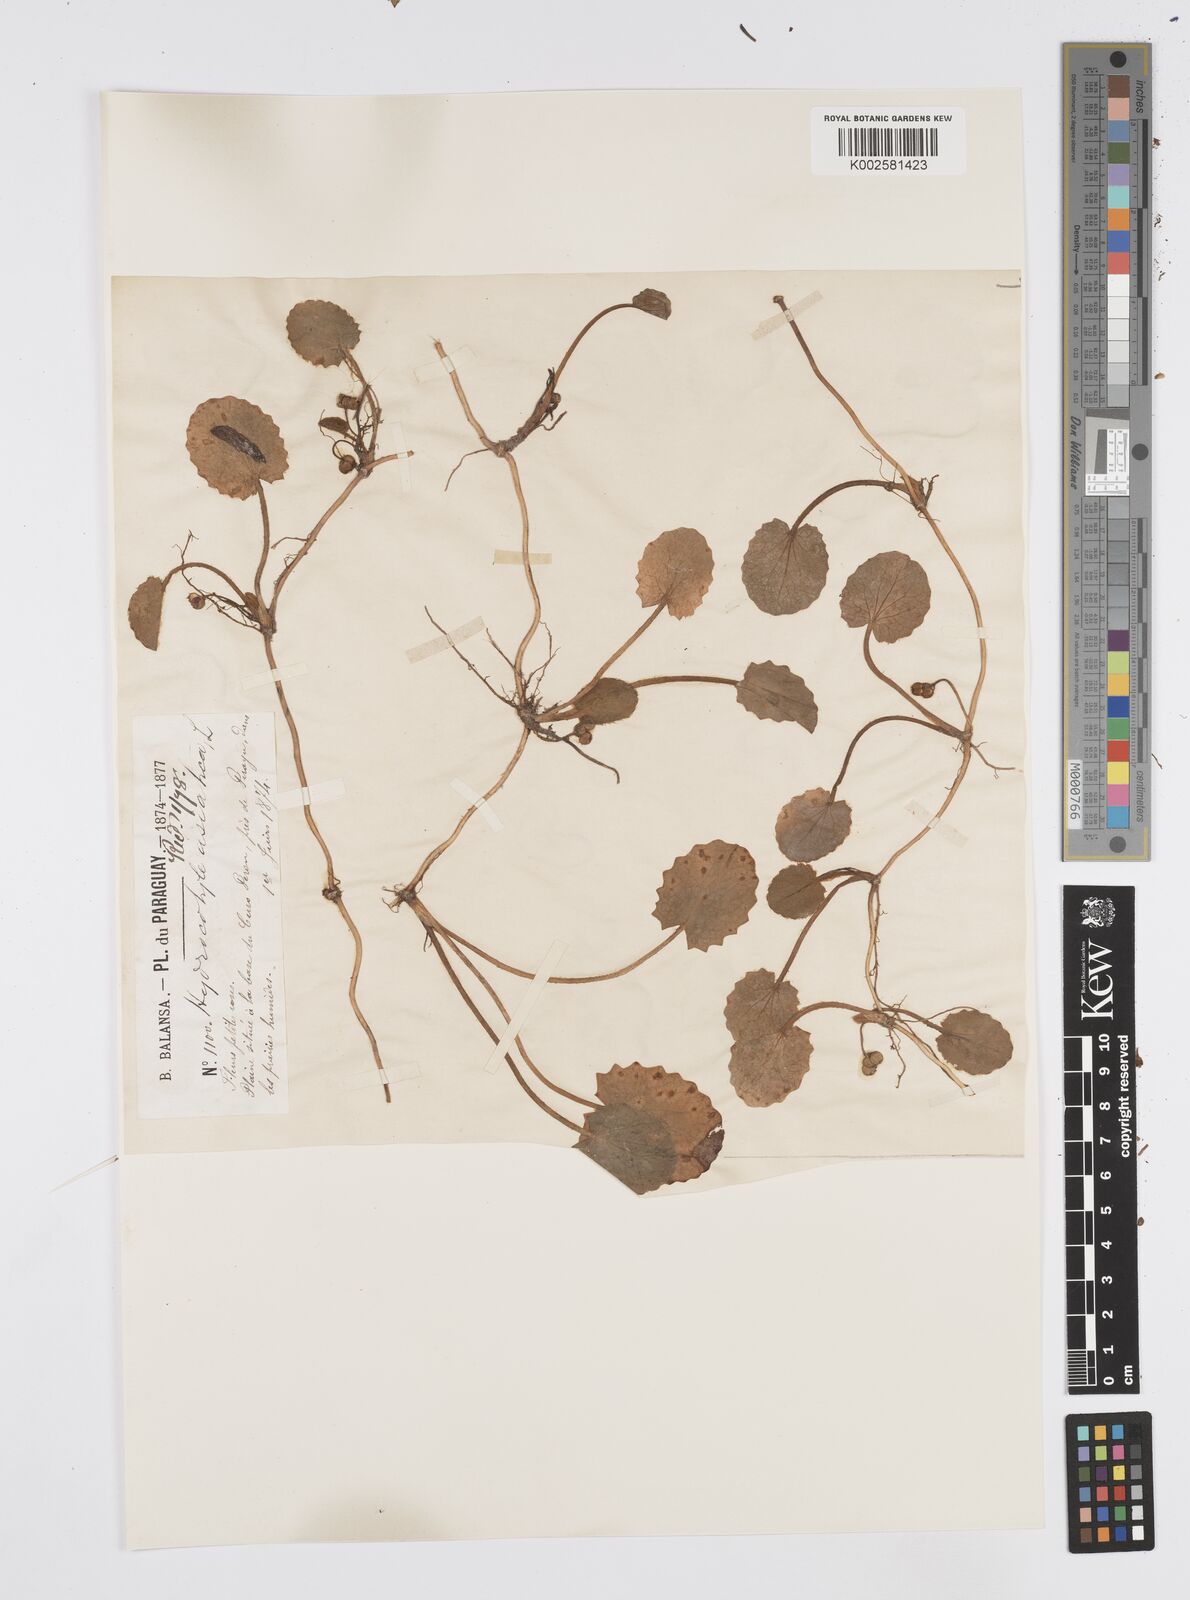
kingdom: Plantae
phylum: Tracheophyta
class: Magnoliopsida
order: Apiales
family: Apiaceae
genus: Centella
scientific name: Centella asiatica
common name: Spadeleaf
